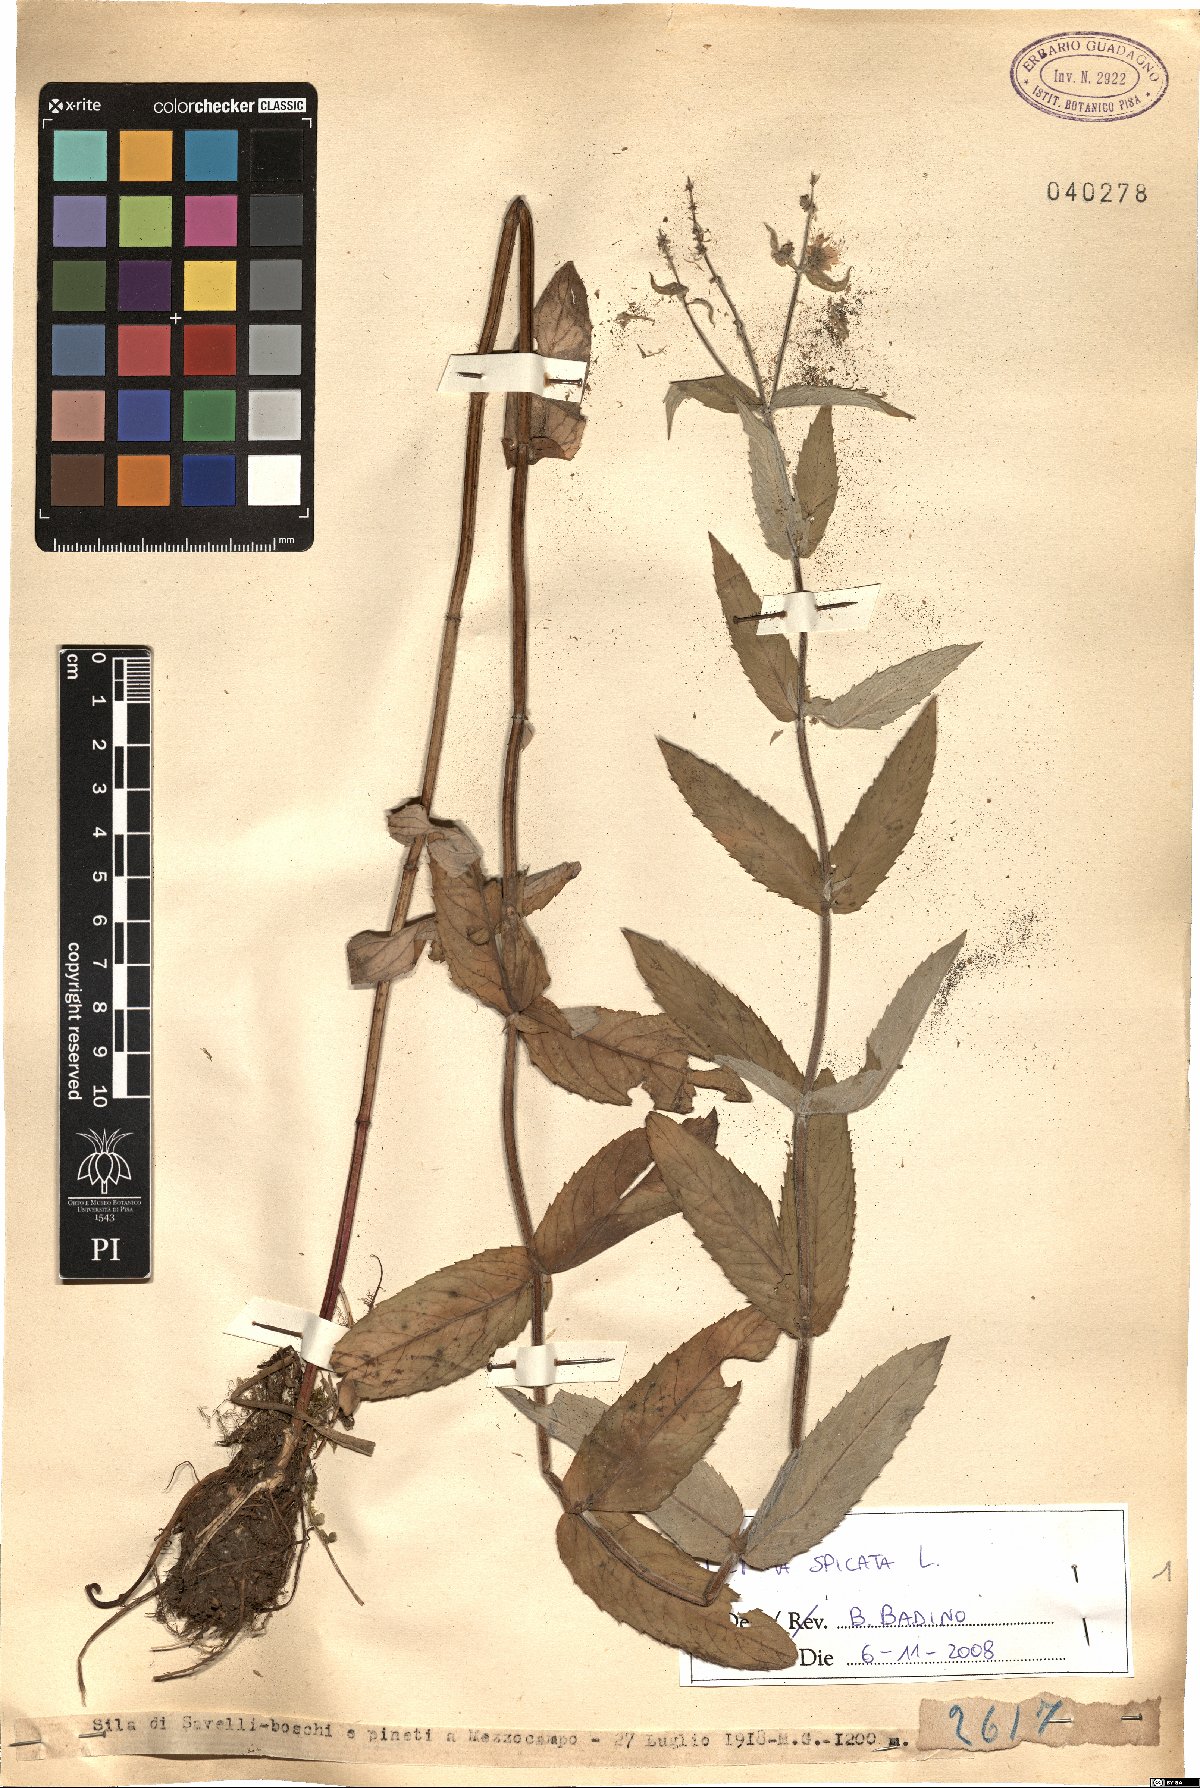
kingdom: Plantae
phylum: Tracheophyta
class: Magnoliopsida
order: Lamiales
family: Lamiaceae
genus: Mentha
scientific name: Mentha spicata
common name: Spearmint
